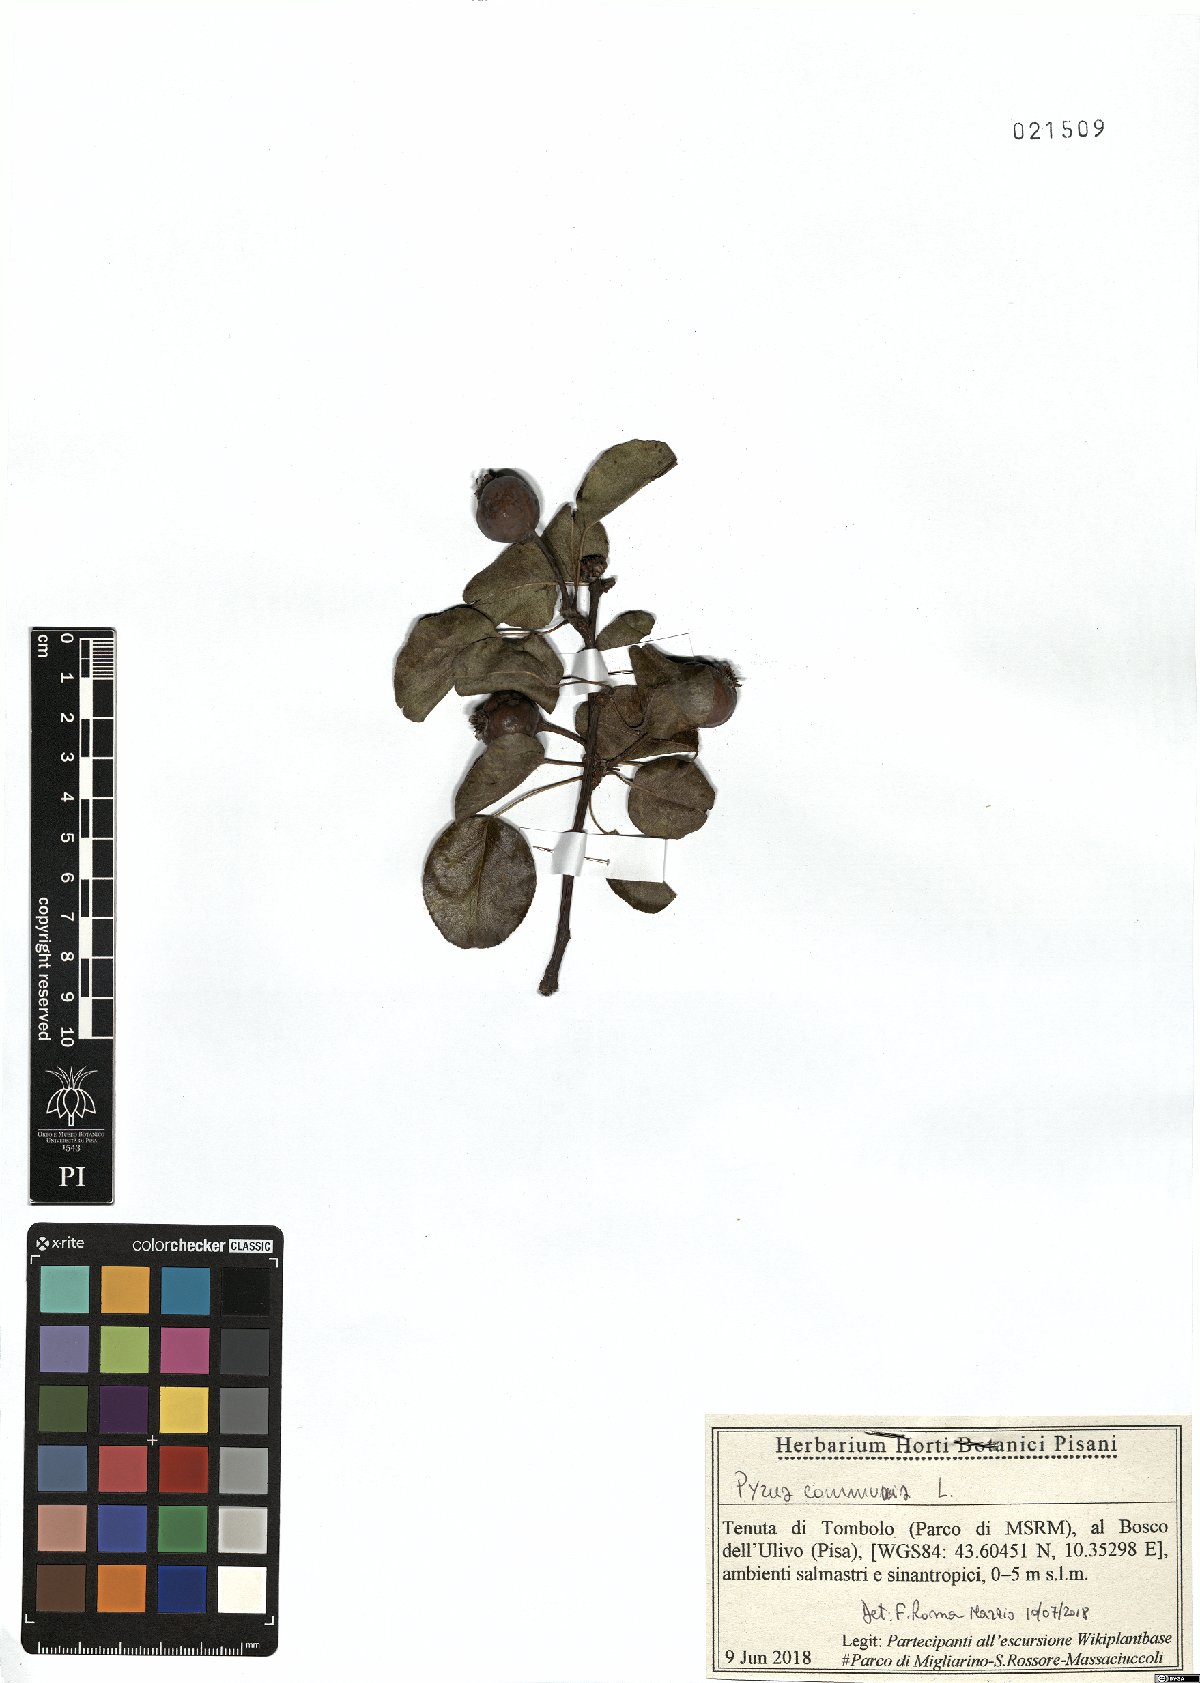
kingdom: Plantae
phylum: Tracheophyta
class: Magnoliopsida
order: Rosales
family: Rosaceae
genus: Pyrus
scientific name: Pyrus communis
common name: Pear
